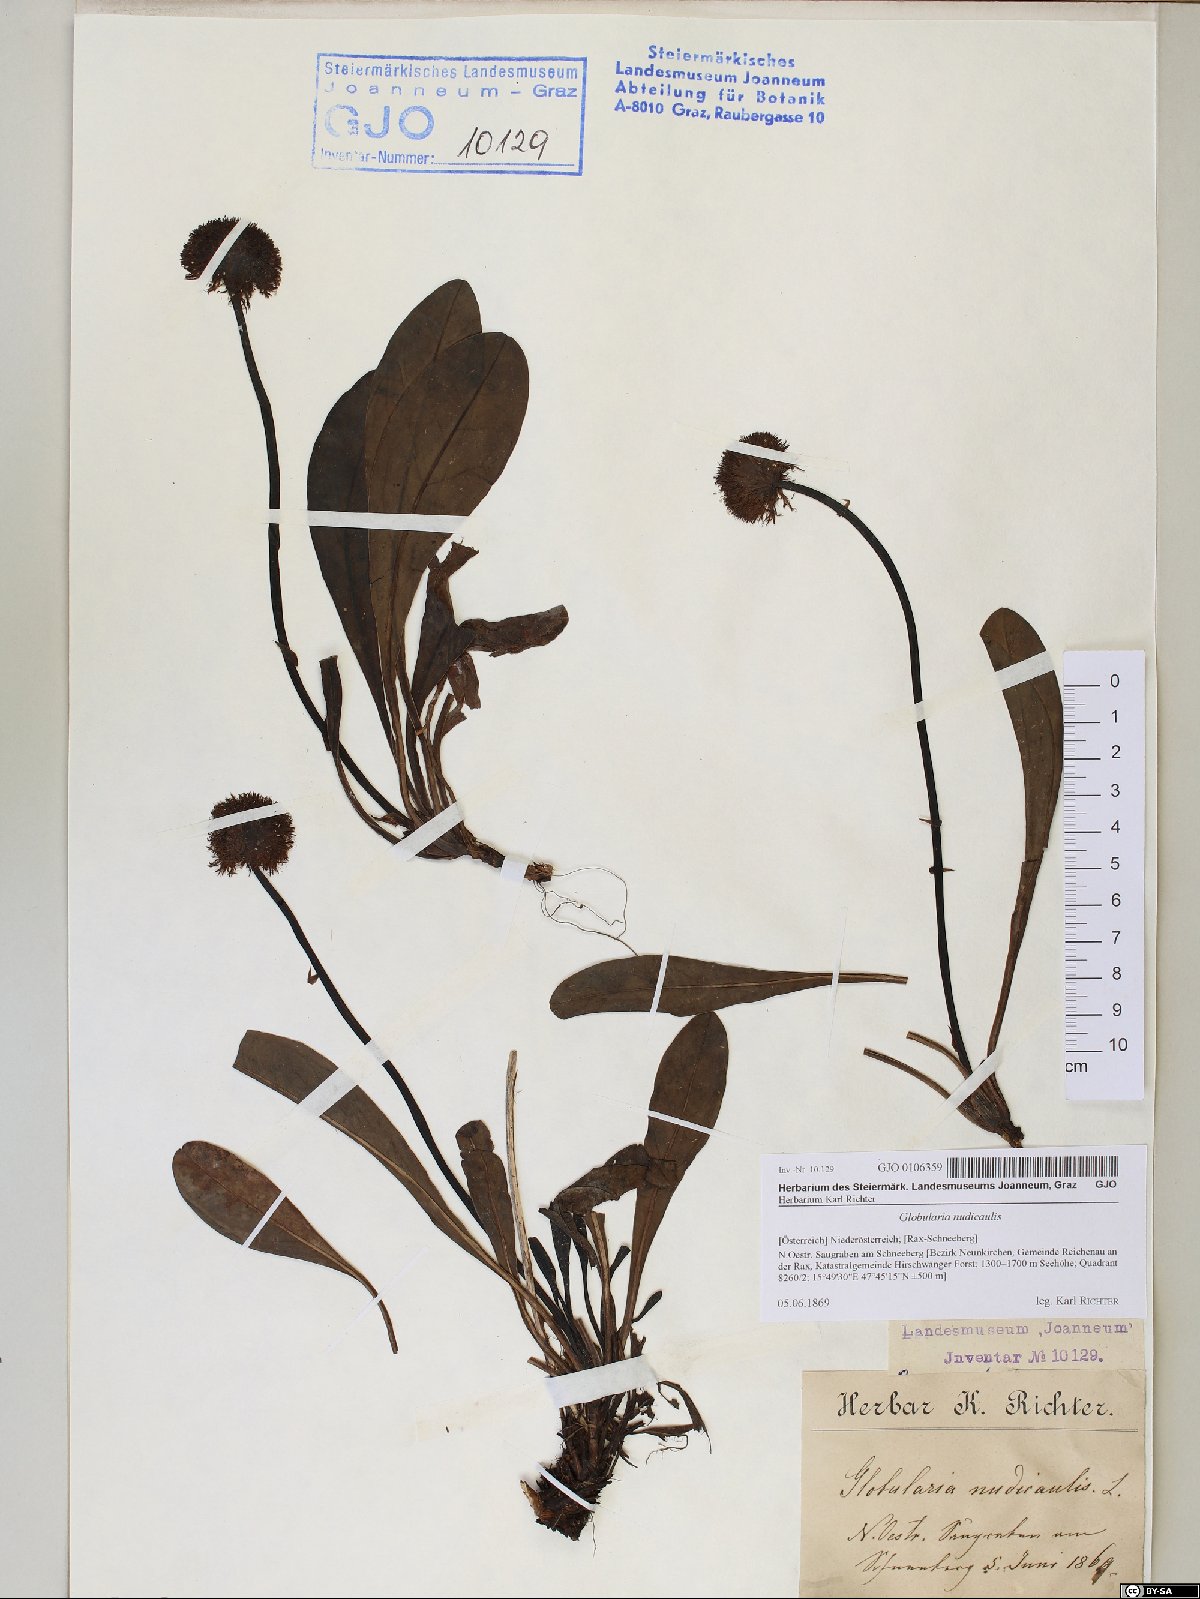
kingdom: Plantae
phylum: Tracheophyta
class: Magnoliopsida
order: Lamiales
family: Plantaginaceae
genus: Globularia
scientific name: Globularia nudicaulis
